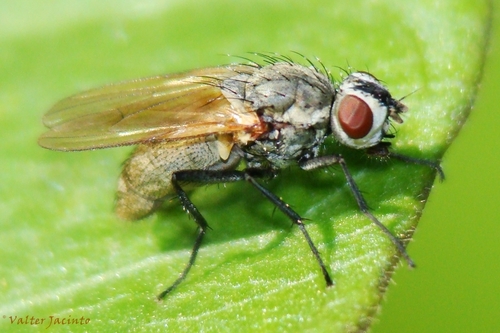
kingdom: Animalia
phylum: Arthropoda
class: Insecta
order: Diptera
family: Anthomyiidae
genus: Delia
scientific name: Delia radicum
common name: Muscoid fly
